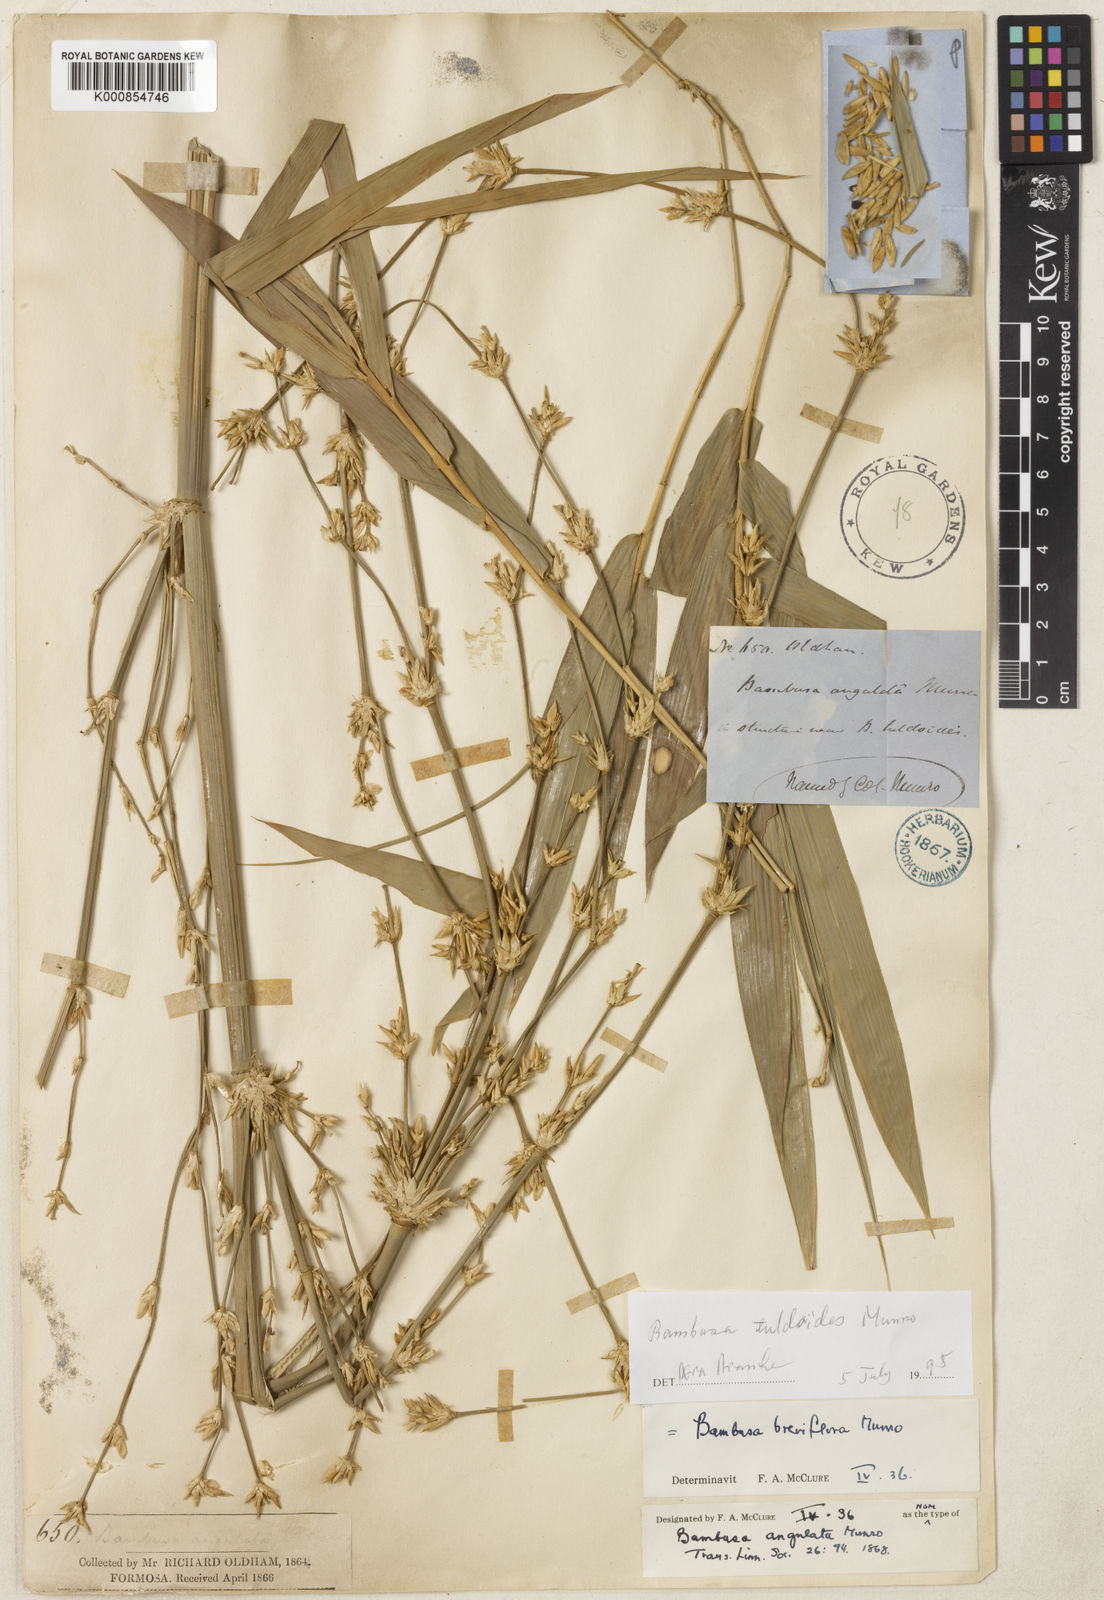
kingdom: Plantae
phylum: Tracheophyta
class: Liliopsida
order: Poales
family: Poaceae
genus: Bambusa
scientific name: Bambusa tuldoides
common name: Verdant bamboo
